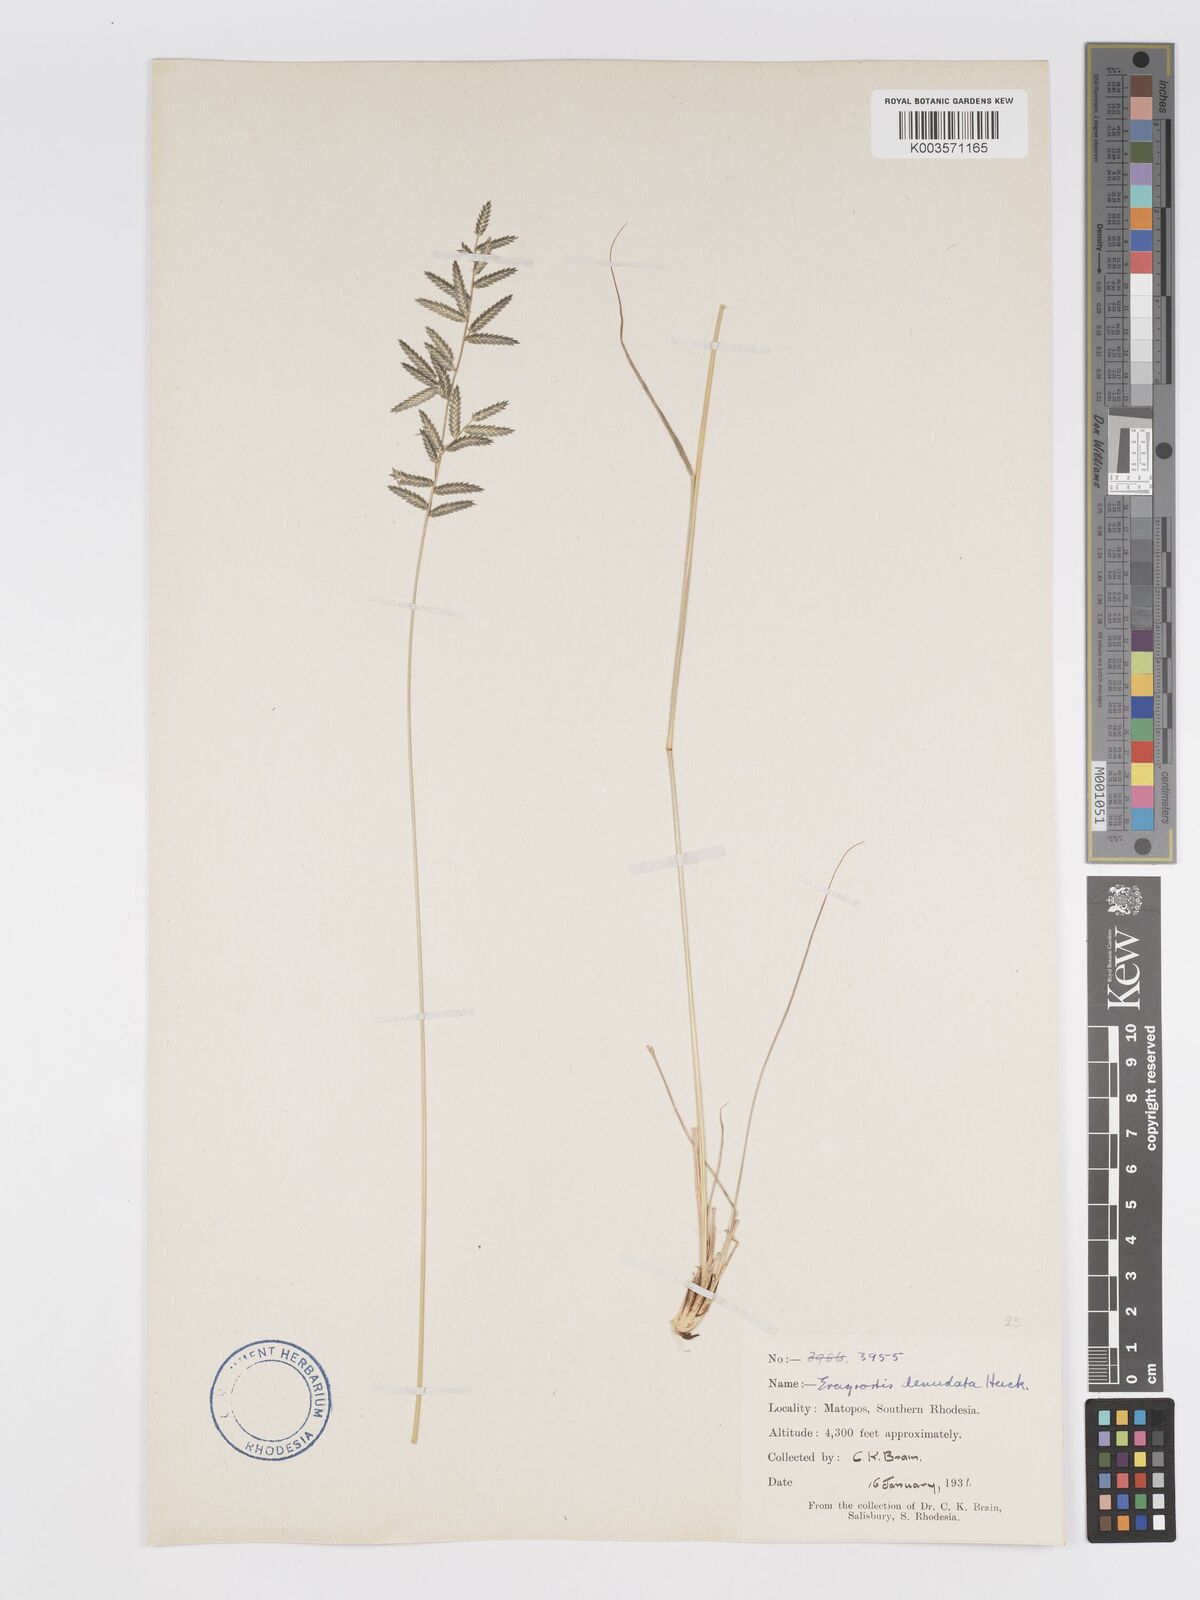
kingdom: Plantae
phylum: Tracheophyta
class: Liliopsida
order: Poales
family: Poaceae
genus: Eragrostis
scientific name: Eragrostis nindensis
